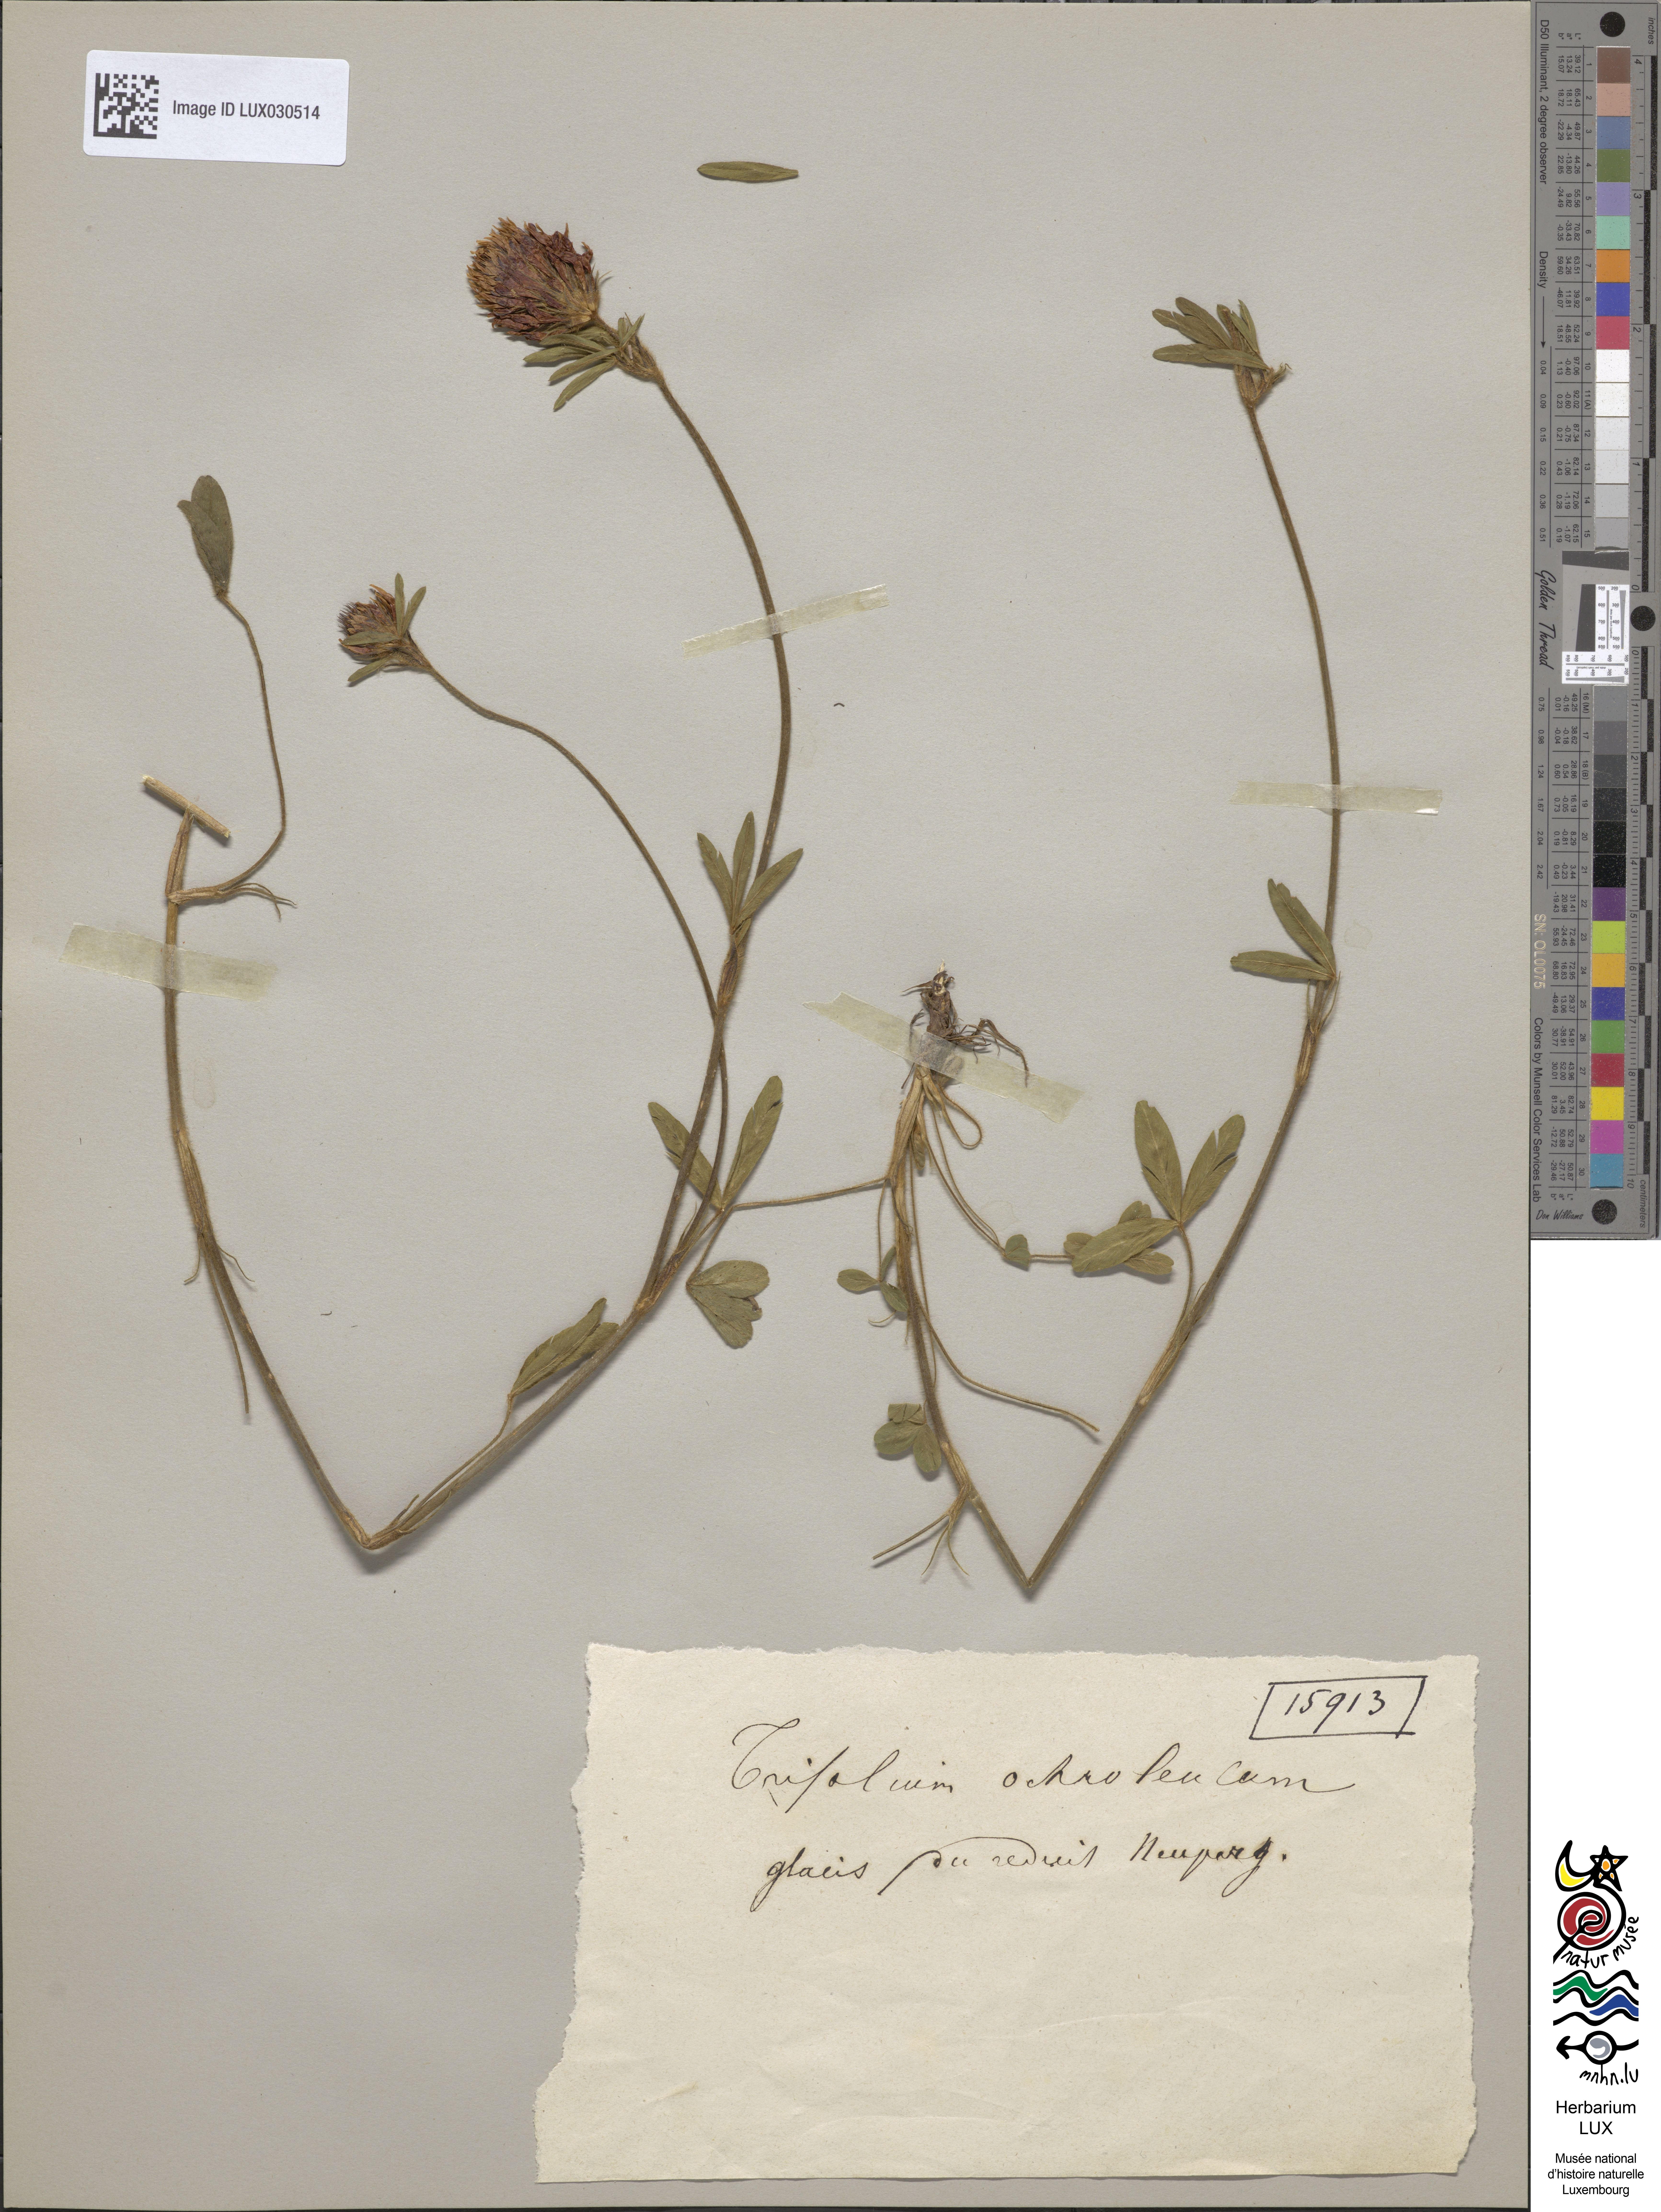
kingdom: Plantae
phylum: Tracheophyta
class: Magnoliopsida
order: Fabales
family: Fabaceae
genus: Trifolium
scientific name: Trifolium ochroleucon
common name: Sulphur clover
